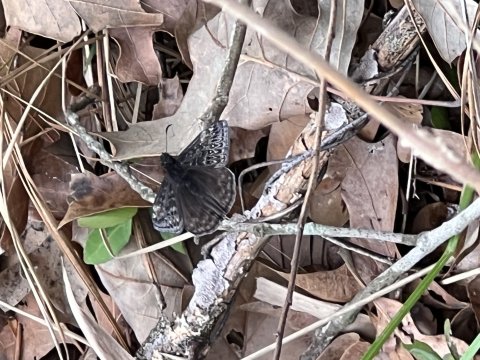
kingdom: Animalia
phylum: Arthropoda
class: Insecta
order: Lepidoptera
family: Hesperiidae
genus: Gesta
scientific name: Gesta
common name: Juvenal's Duskywing
